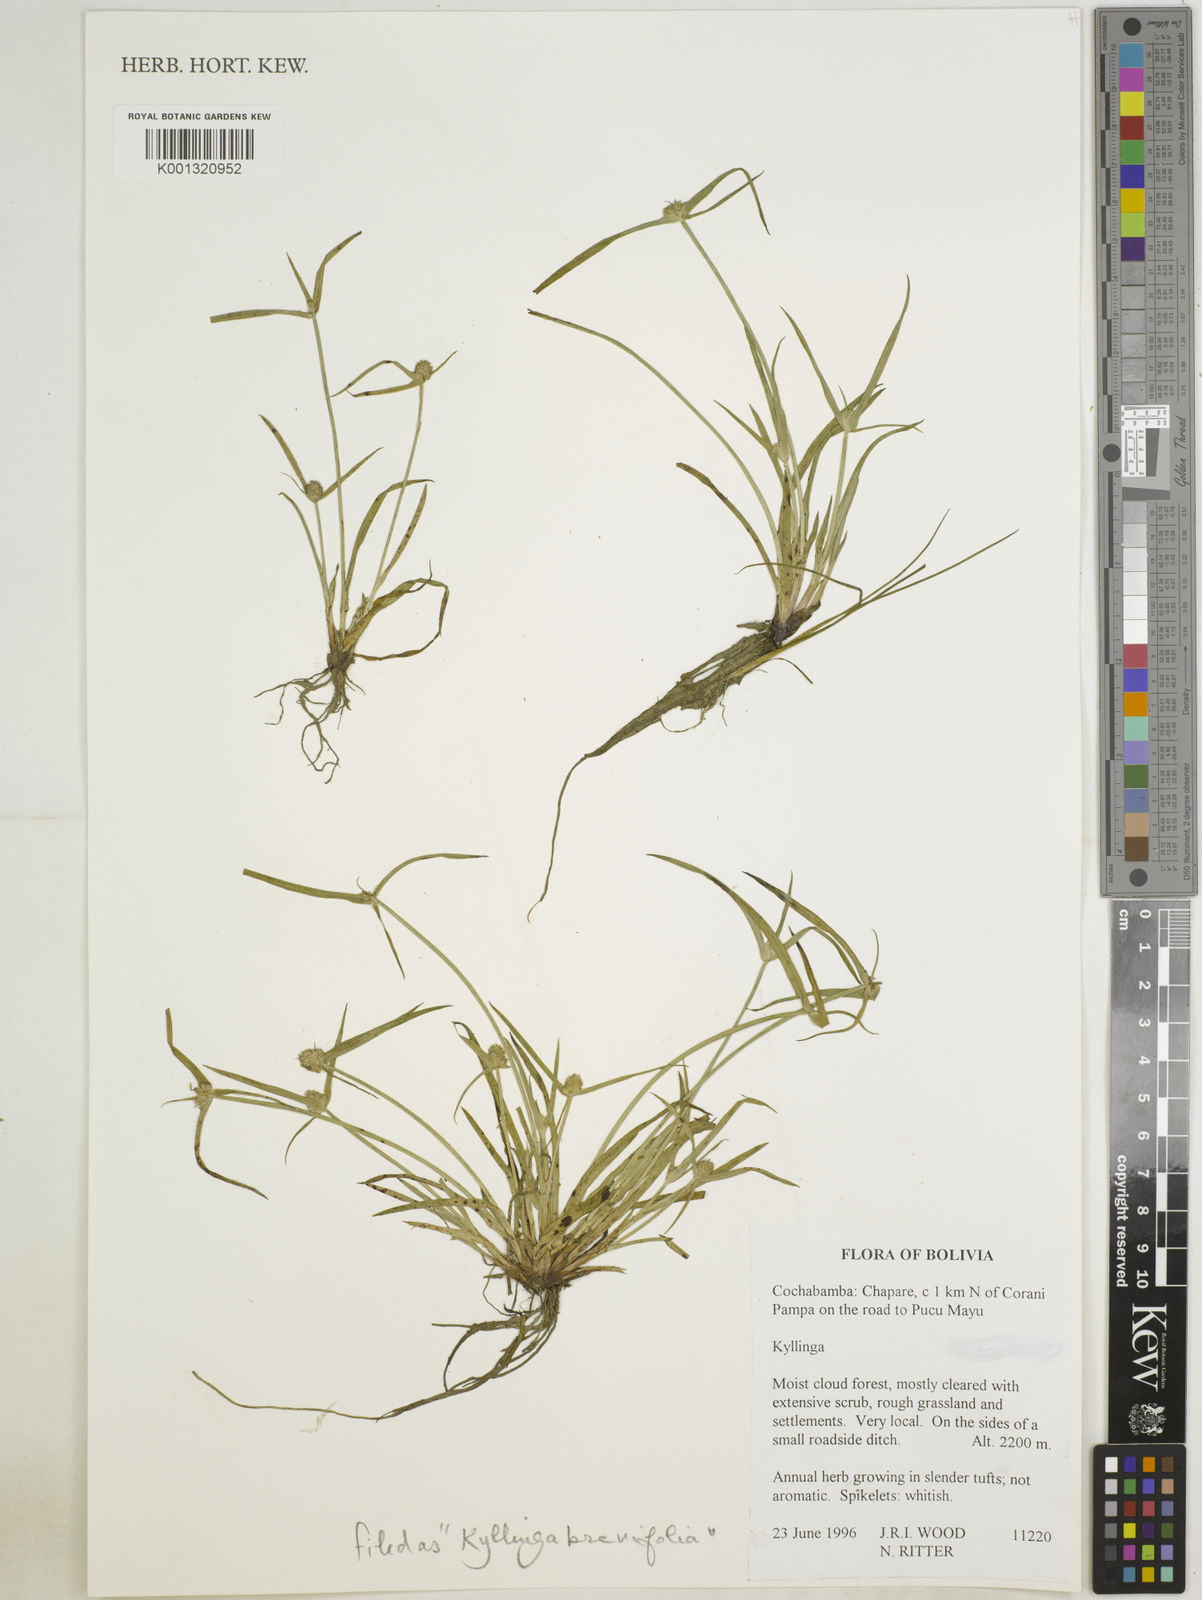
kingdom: Plantae
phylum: Tracheophyta
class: Liliopsida
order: Poales
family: Cyperaceae
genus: Cyperus
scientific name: Cyperus brevifolius
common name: Globe kyllinga
